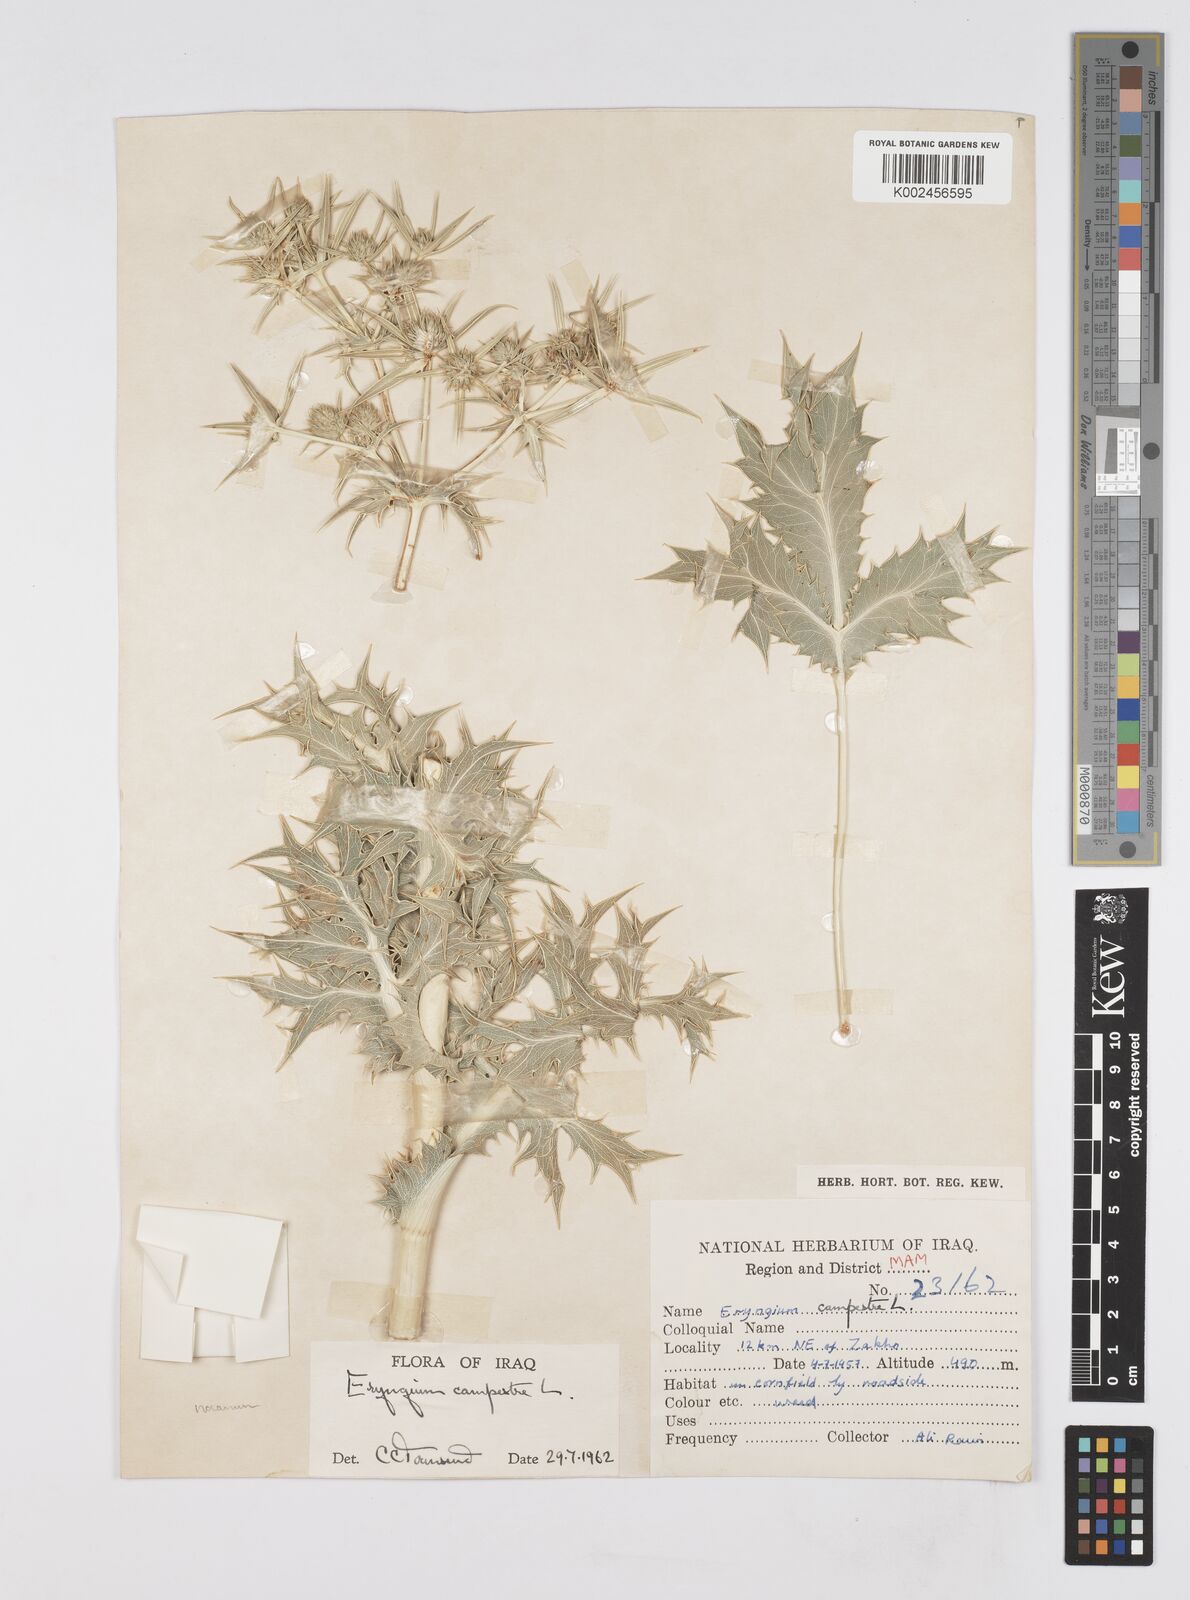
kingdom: Plantae
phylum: Tracheophyta
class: Magnoliopsida
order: Apiales
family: Apiaceae
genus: Eryngium
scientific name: Eryngium campestre
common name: Field eryngo
